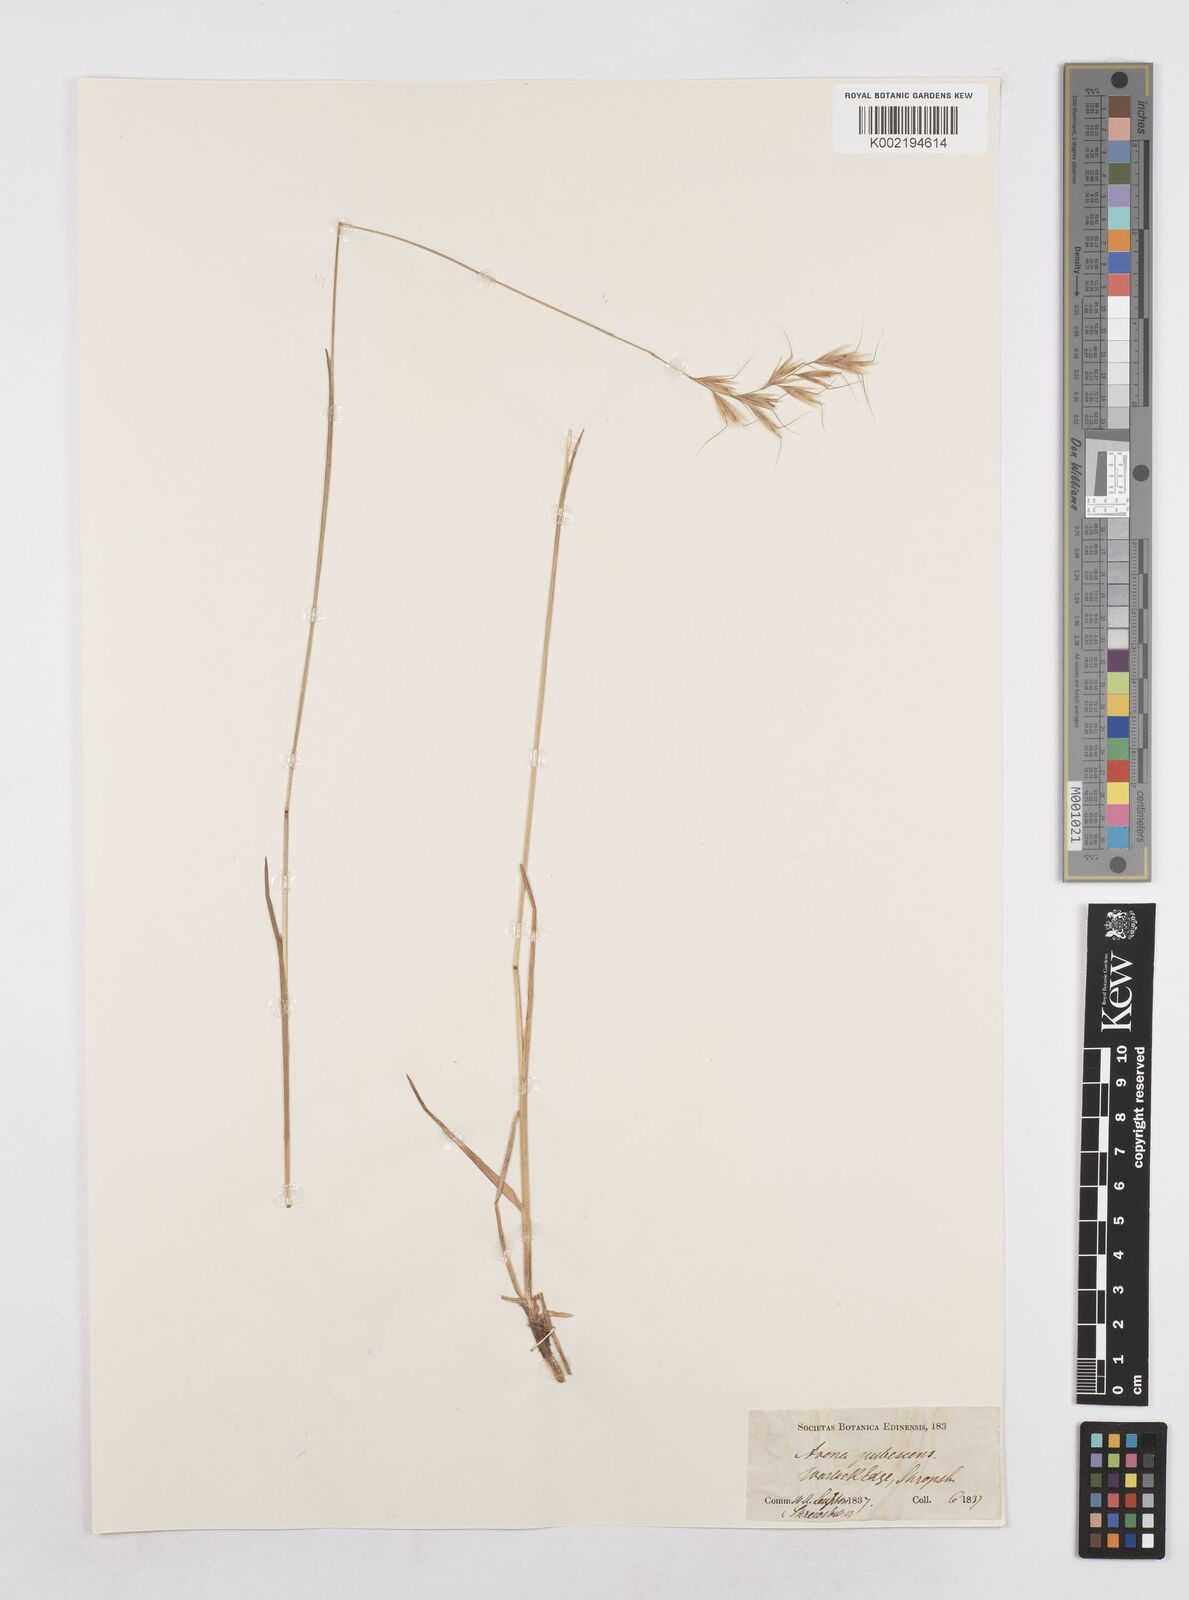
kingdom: Plantae
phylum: Tracheophyta
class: Liliopsida
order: Poales
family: Poaceae
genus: Avenula
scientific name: Avenula pubescens
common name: Downy alpine oatgrass
